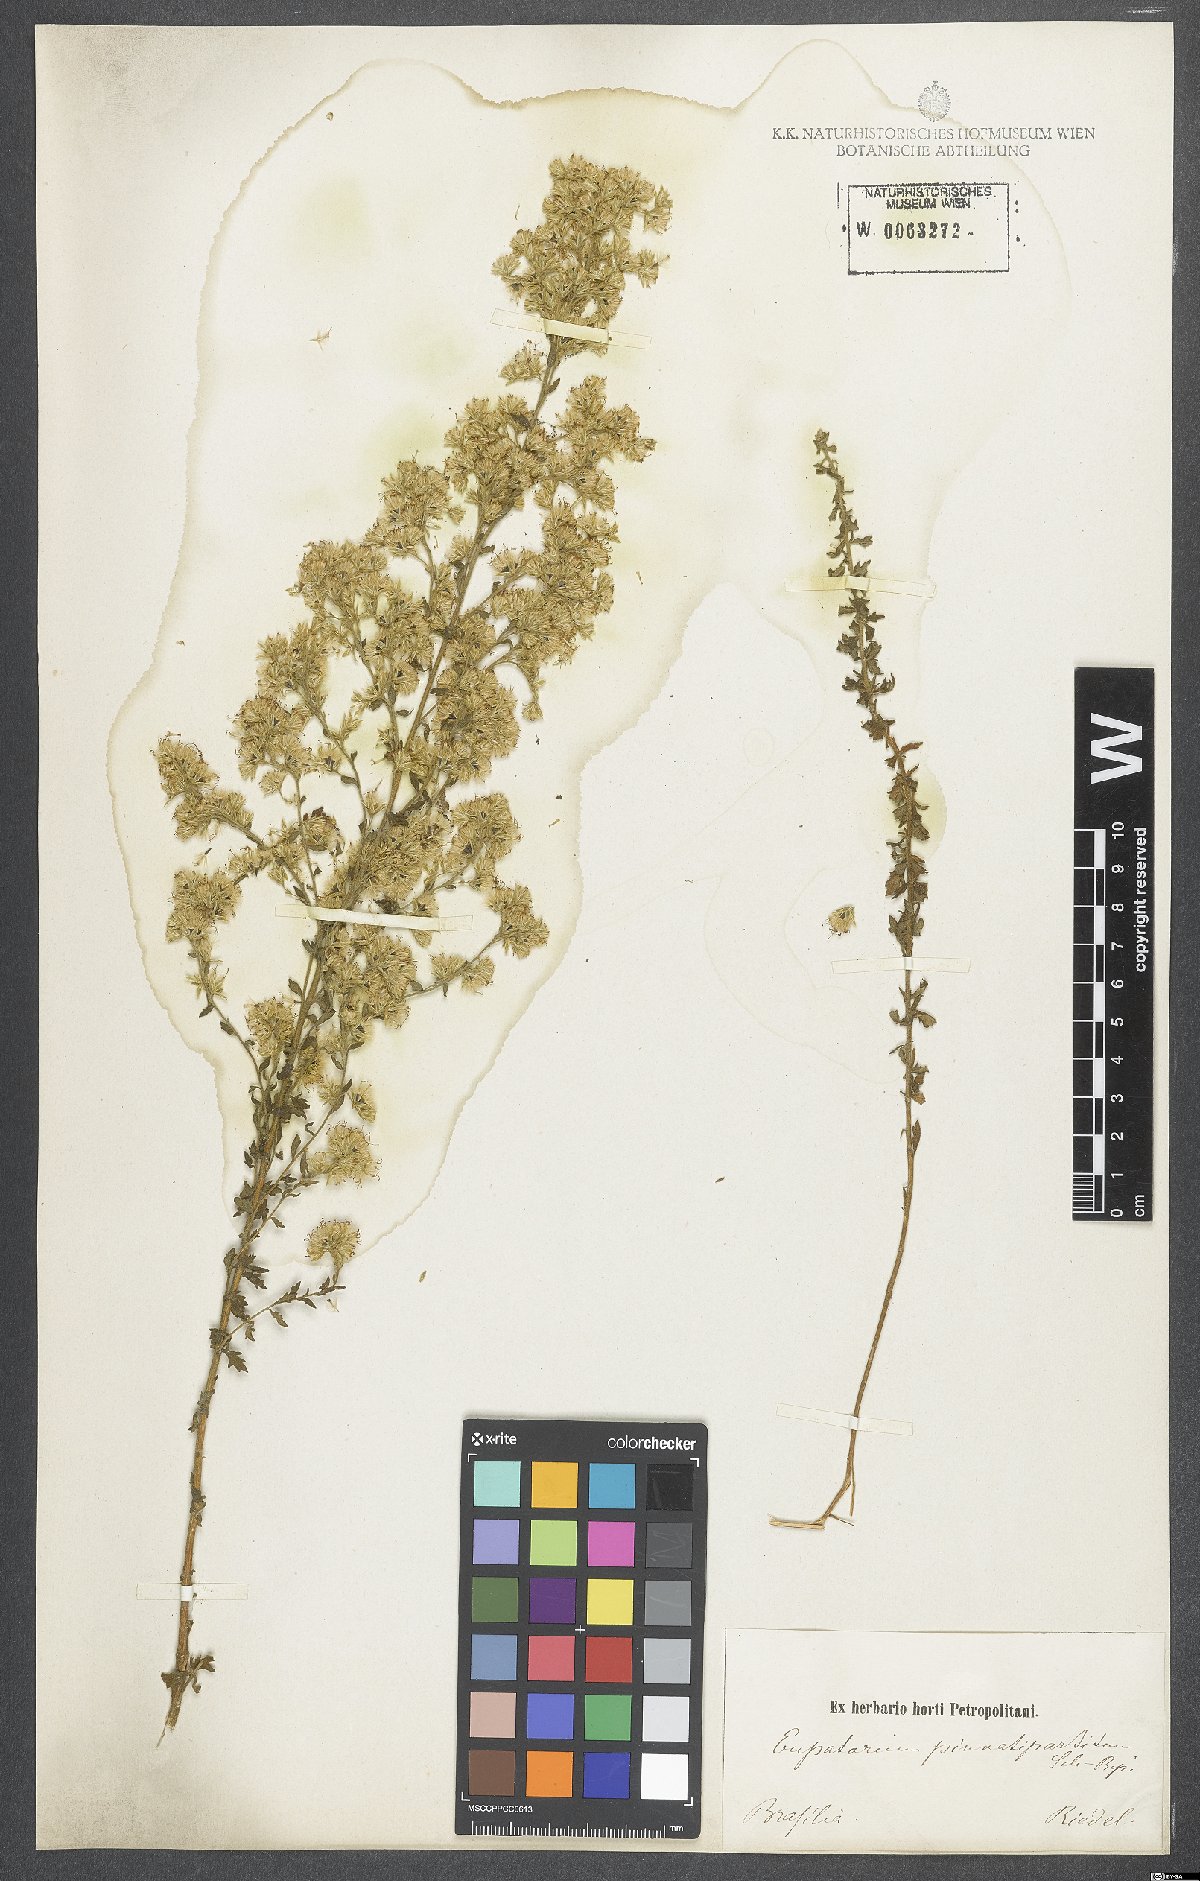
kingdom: Plantae
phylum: Tracheophyta
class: Magnoliopsida
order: Asterales
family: Asteraceae
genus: Stomatanthes
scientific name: Stomatanthes pinnatipartitus
